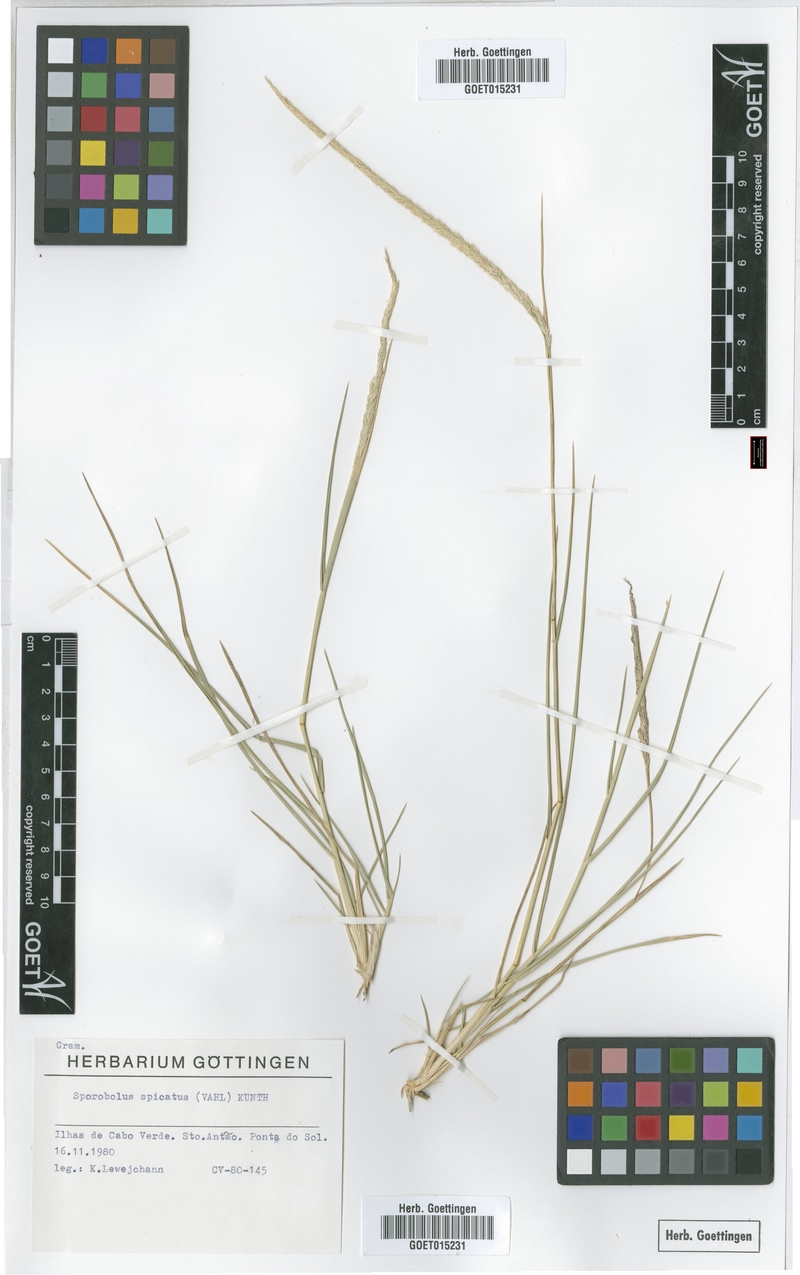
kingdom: Plantae
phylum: Tracheophyta
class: Liliopsida
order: Poales
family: Poaceae
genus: Sporobolus
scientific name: Sporobolus spicatus
